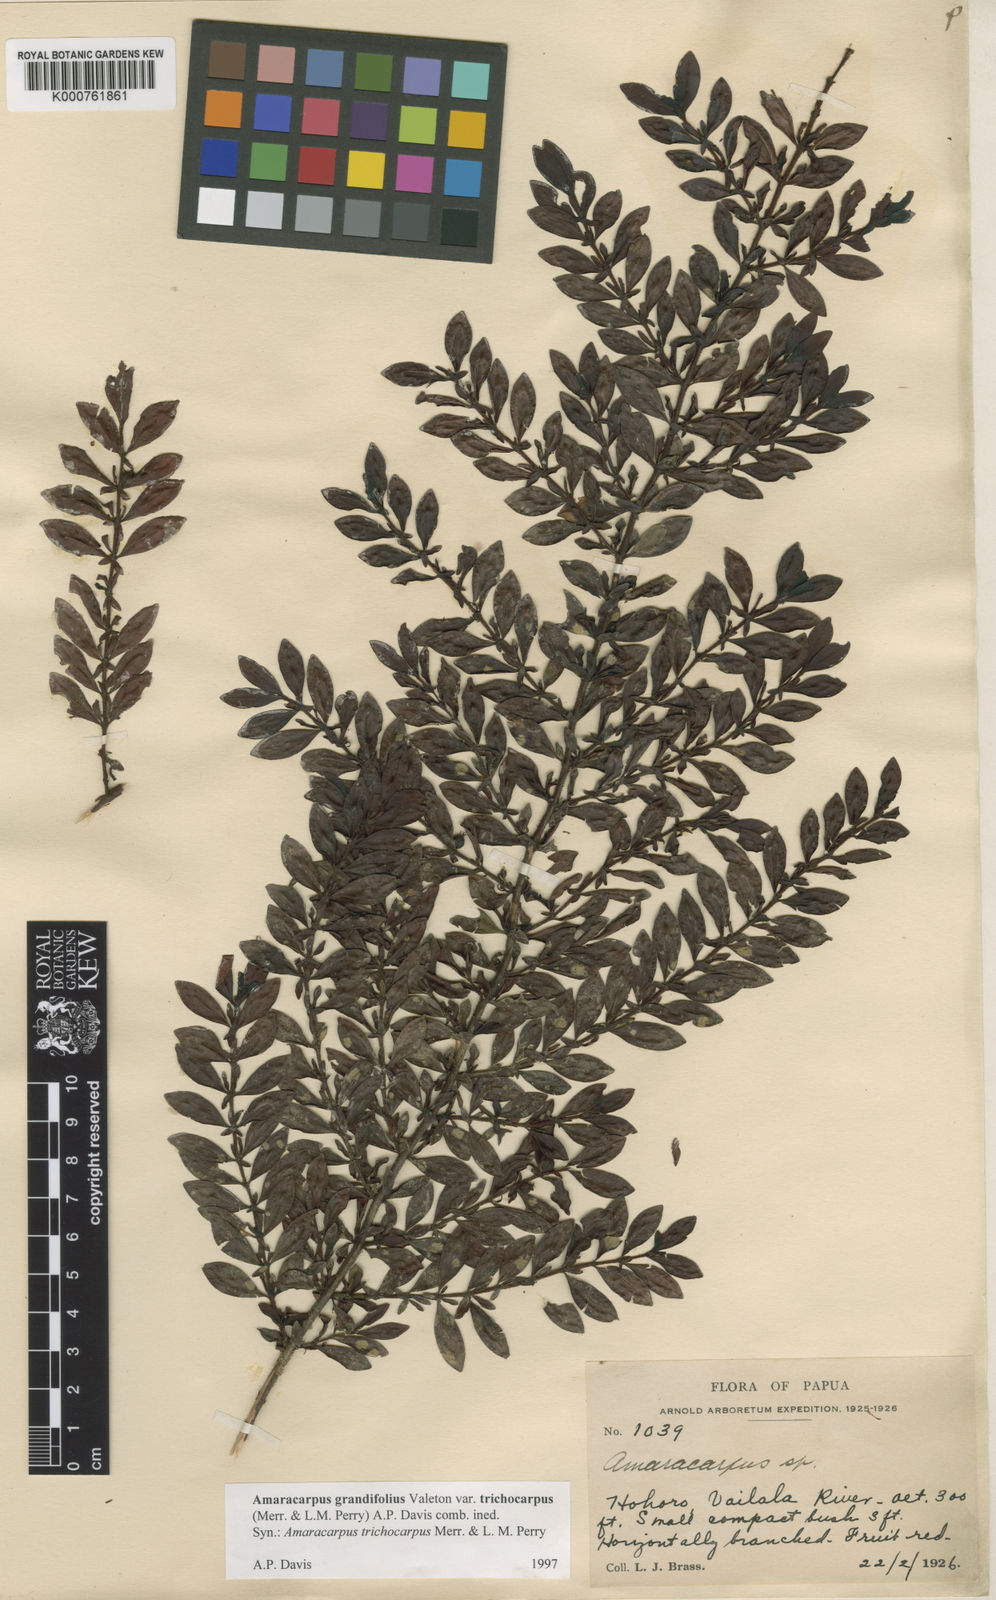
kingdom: Plantae
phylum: Tracheophyta
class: Magnoliopsida
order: Gentianales
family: Rubiaceae
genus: Amaracarpus
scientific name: Amaracarpus grandifolius
